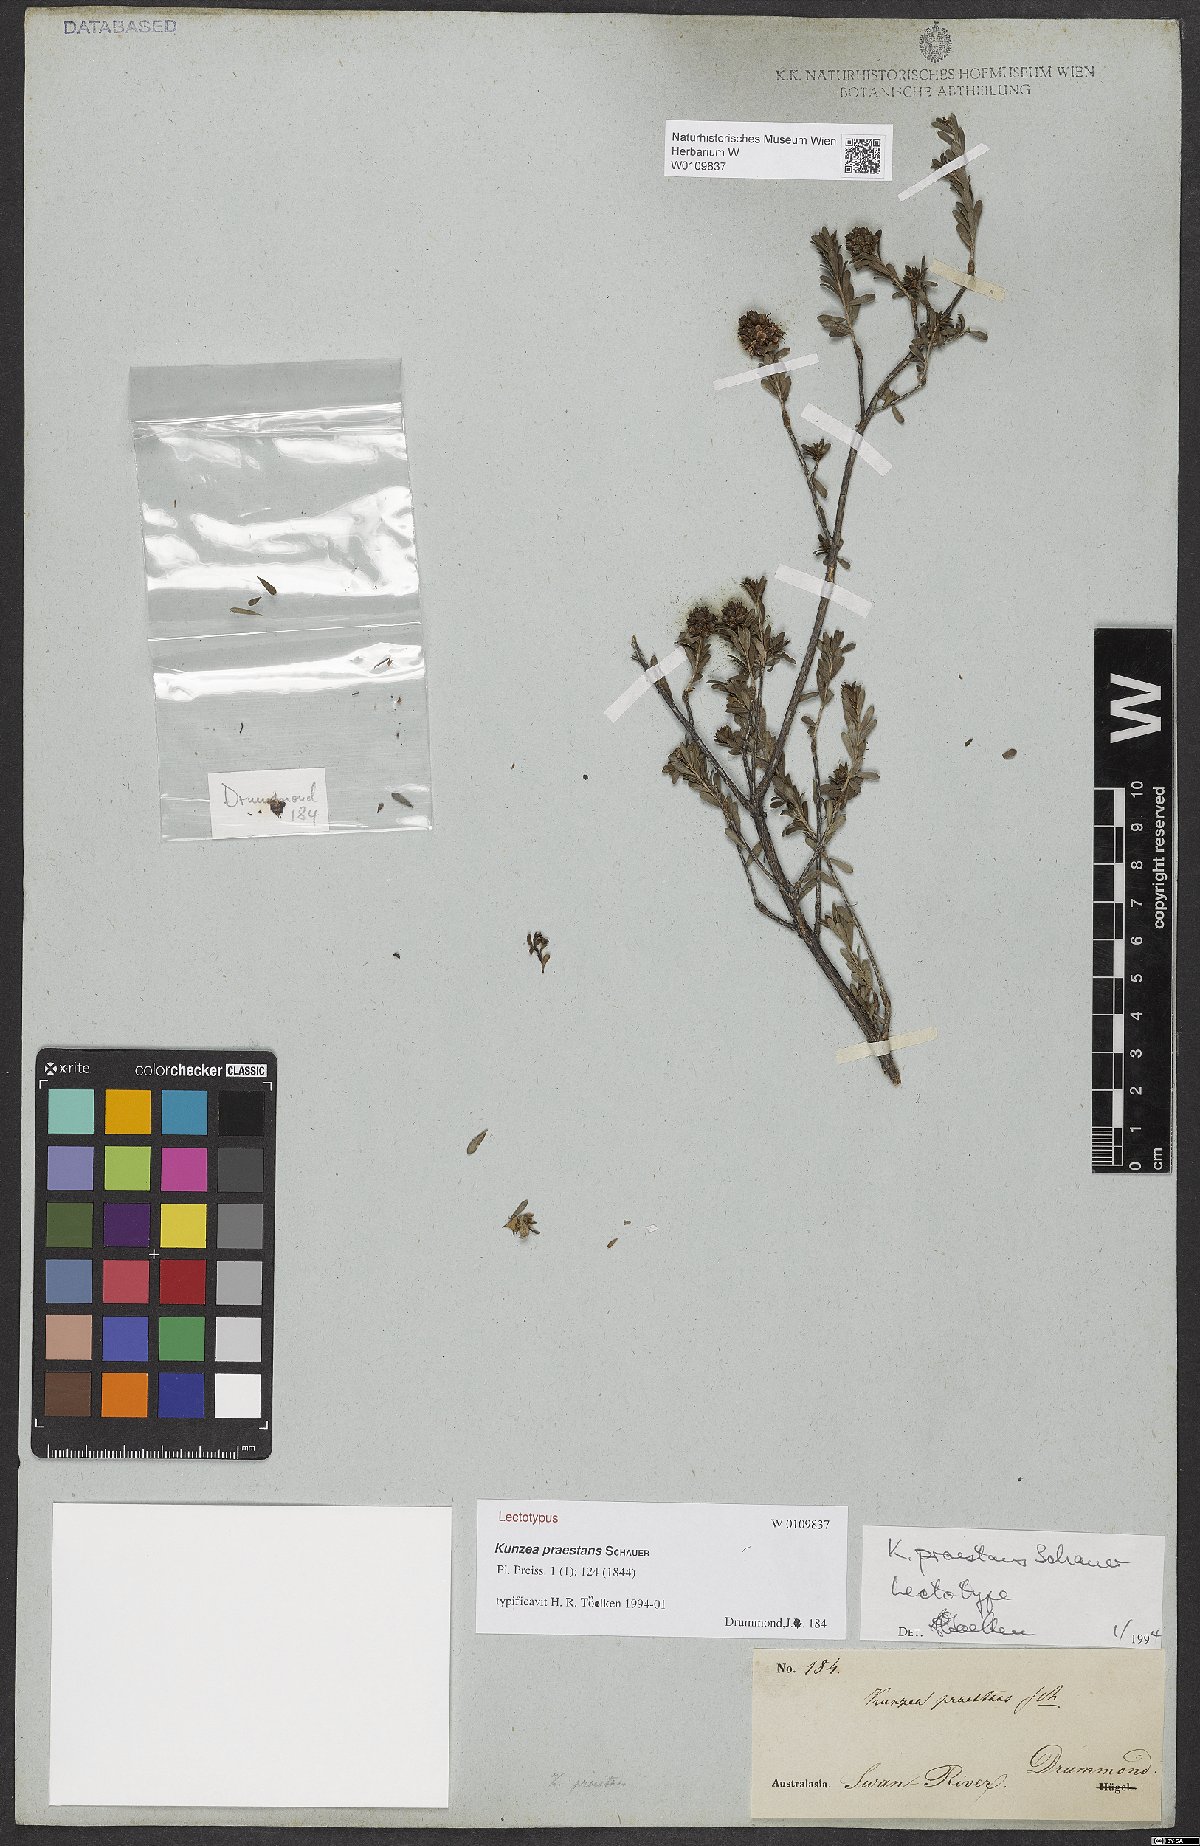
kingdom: Plantae
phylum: Tracheophyta
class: Magnoliopsida
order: Myrtales
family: Myrtaceae
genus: Kunzea
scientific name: Kunzea praestans
